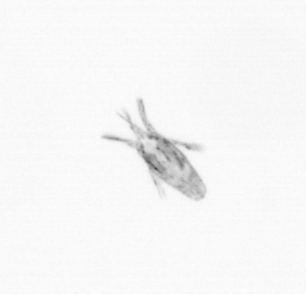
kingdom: Animalia
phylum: Arthropoda
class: Copepoda
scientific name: Copepoda
